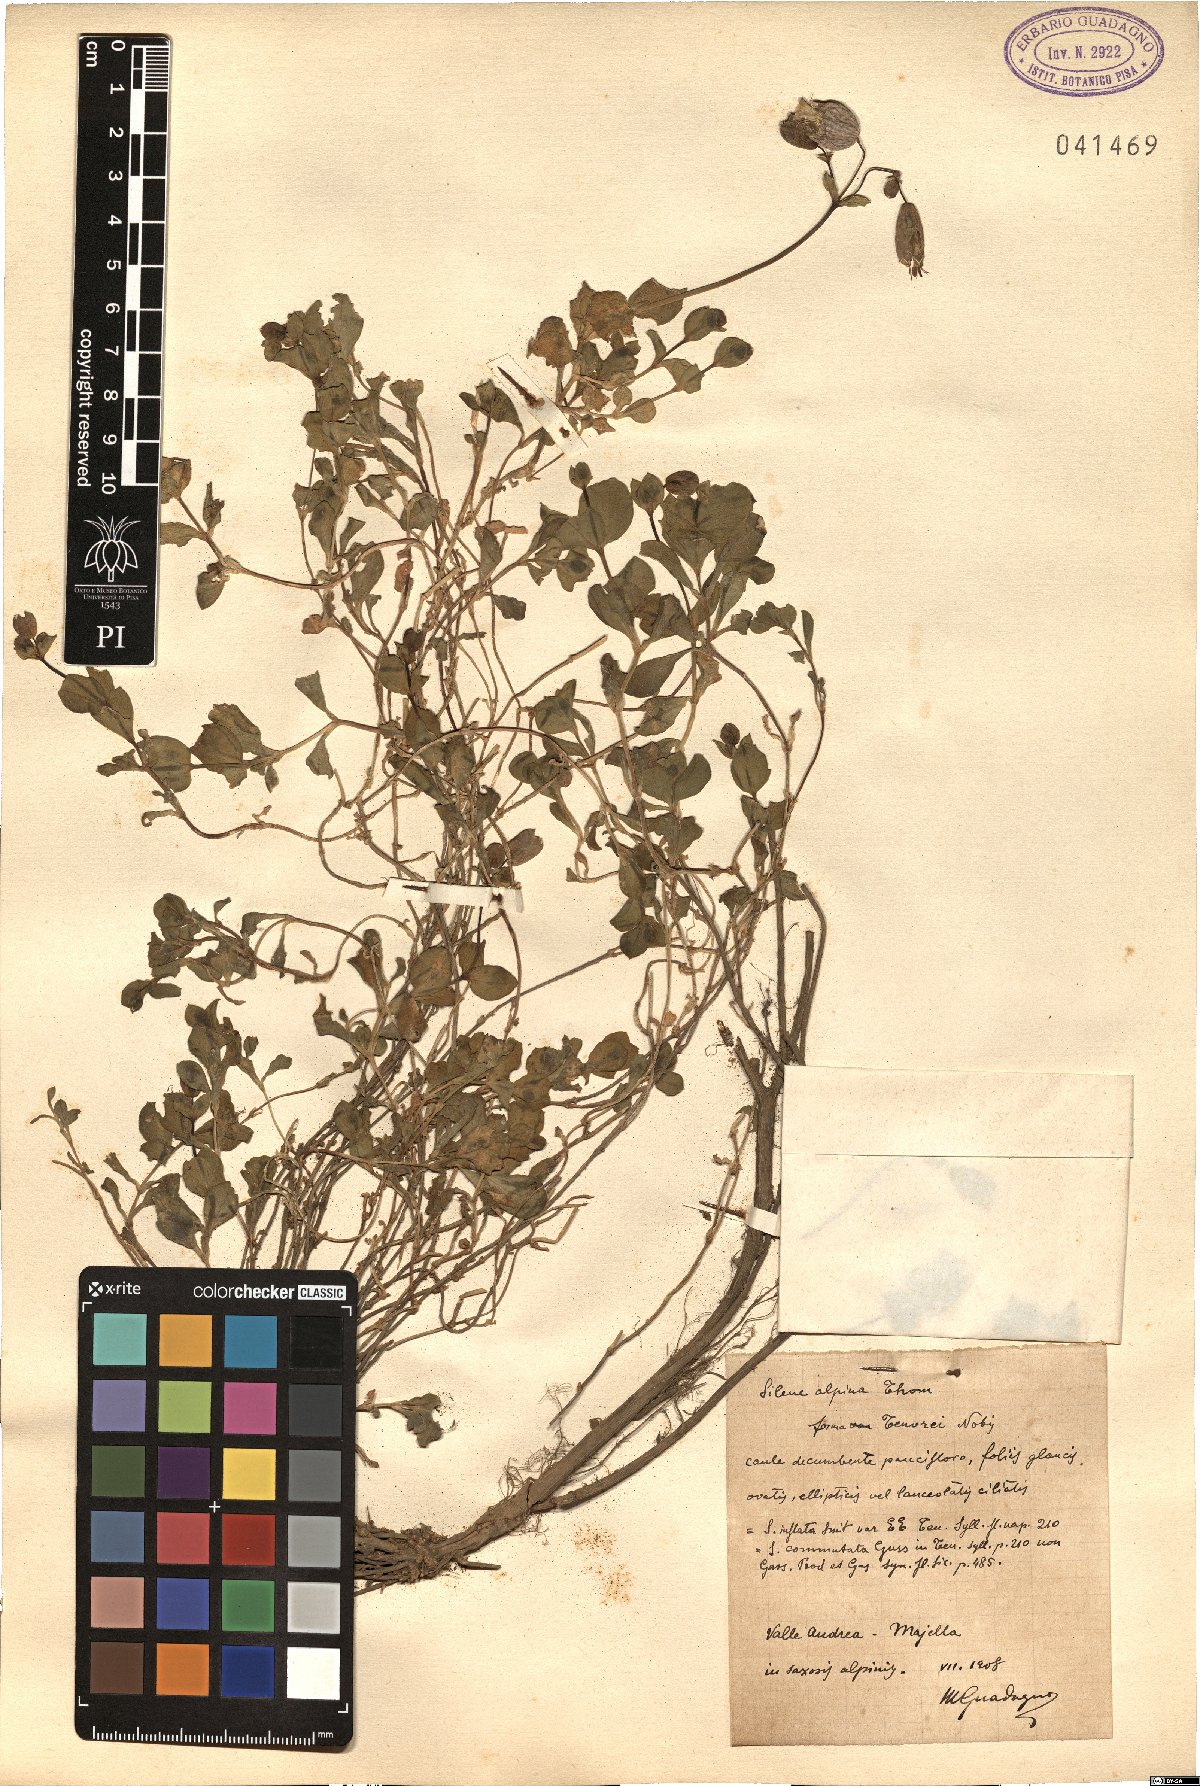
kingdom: Plantae
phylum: Tracheophyta
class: Magnoliopsida
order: Caryophyllales
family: Caryophyllaceae
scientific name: Caryophyllaceae
